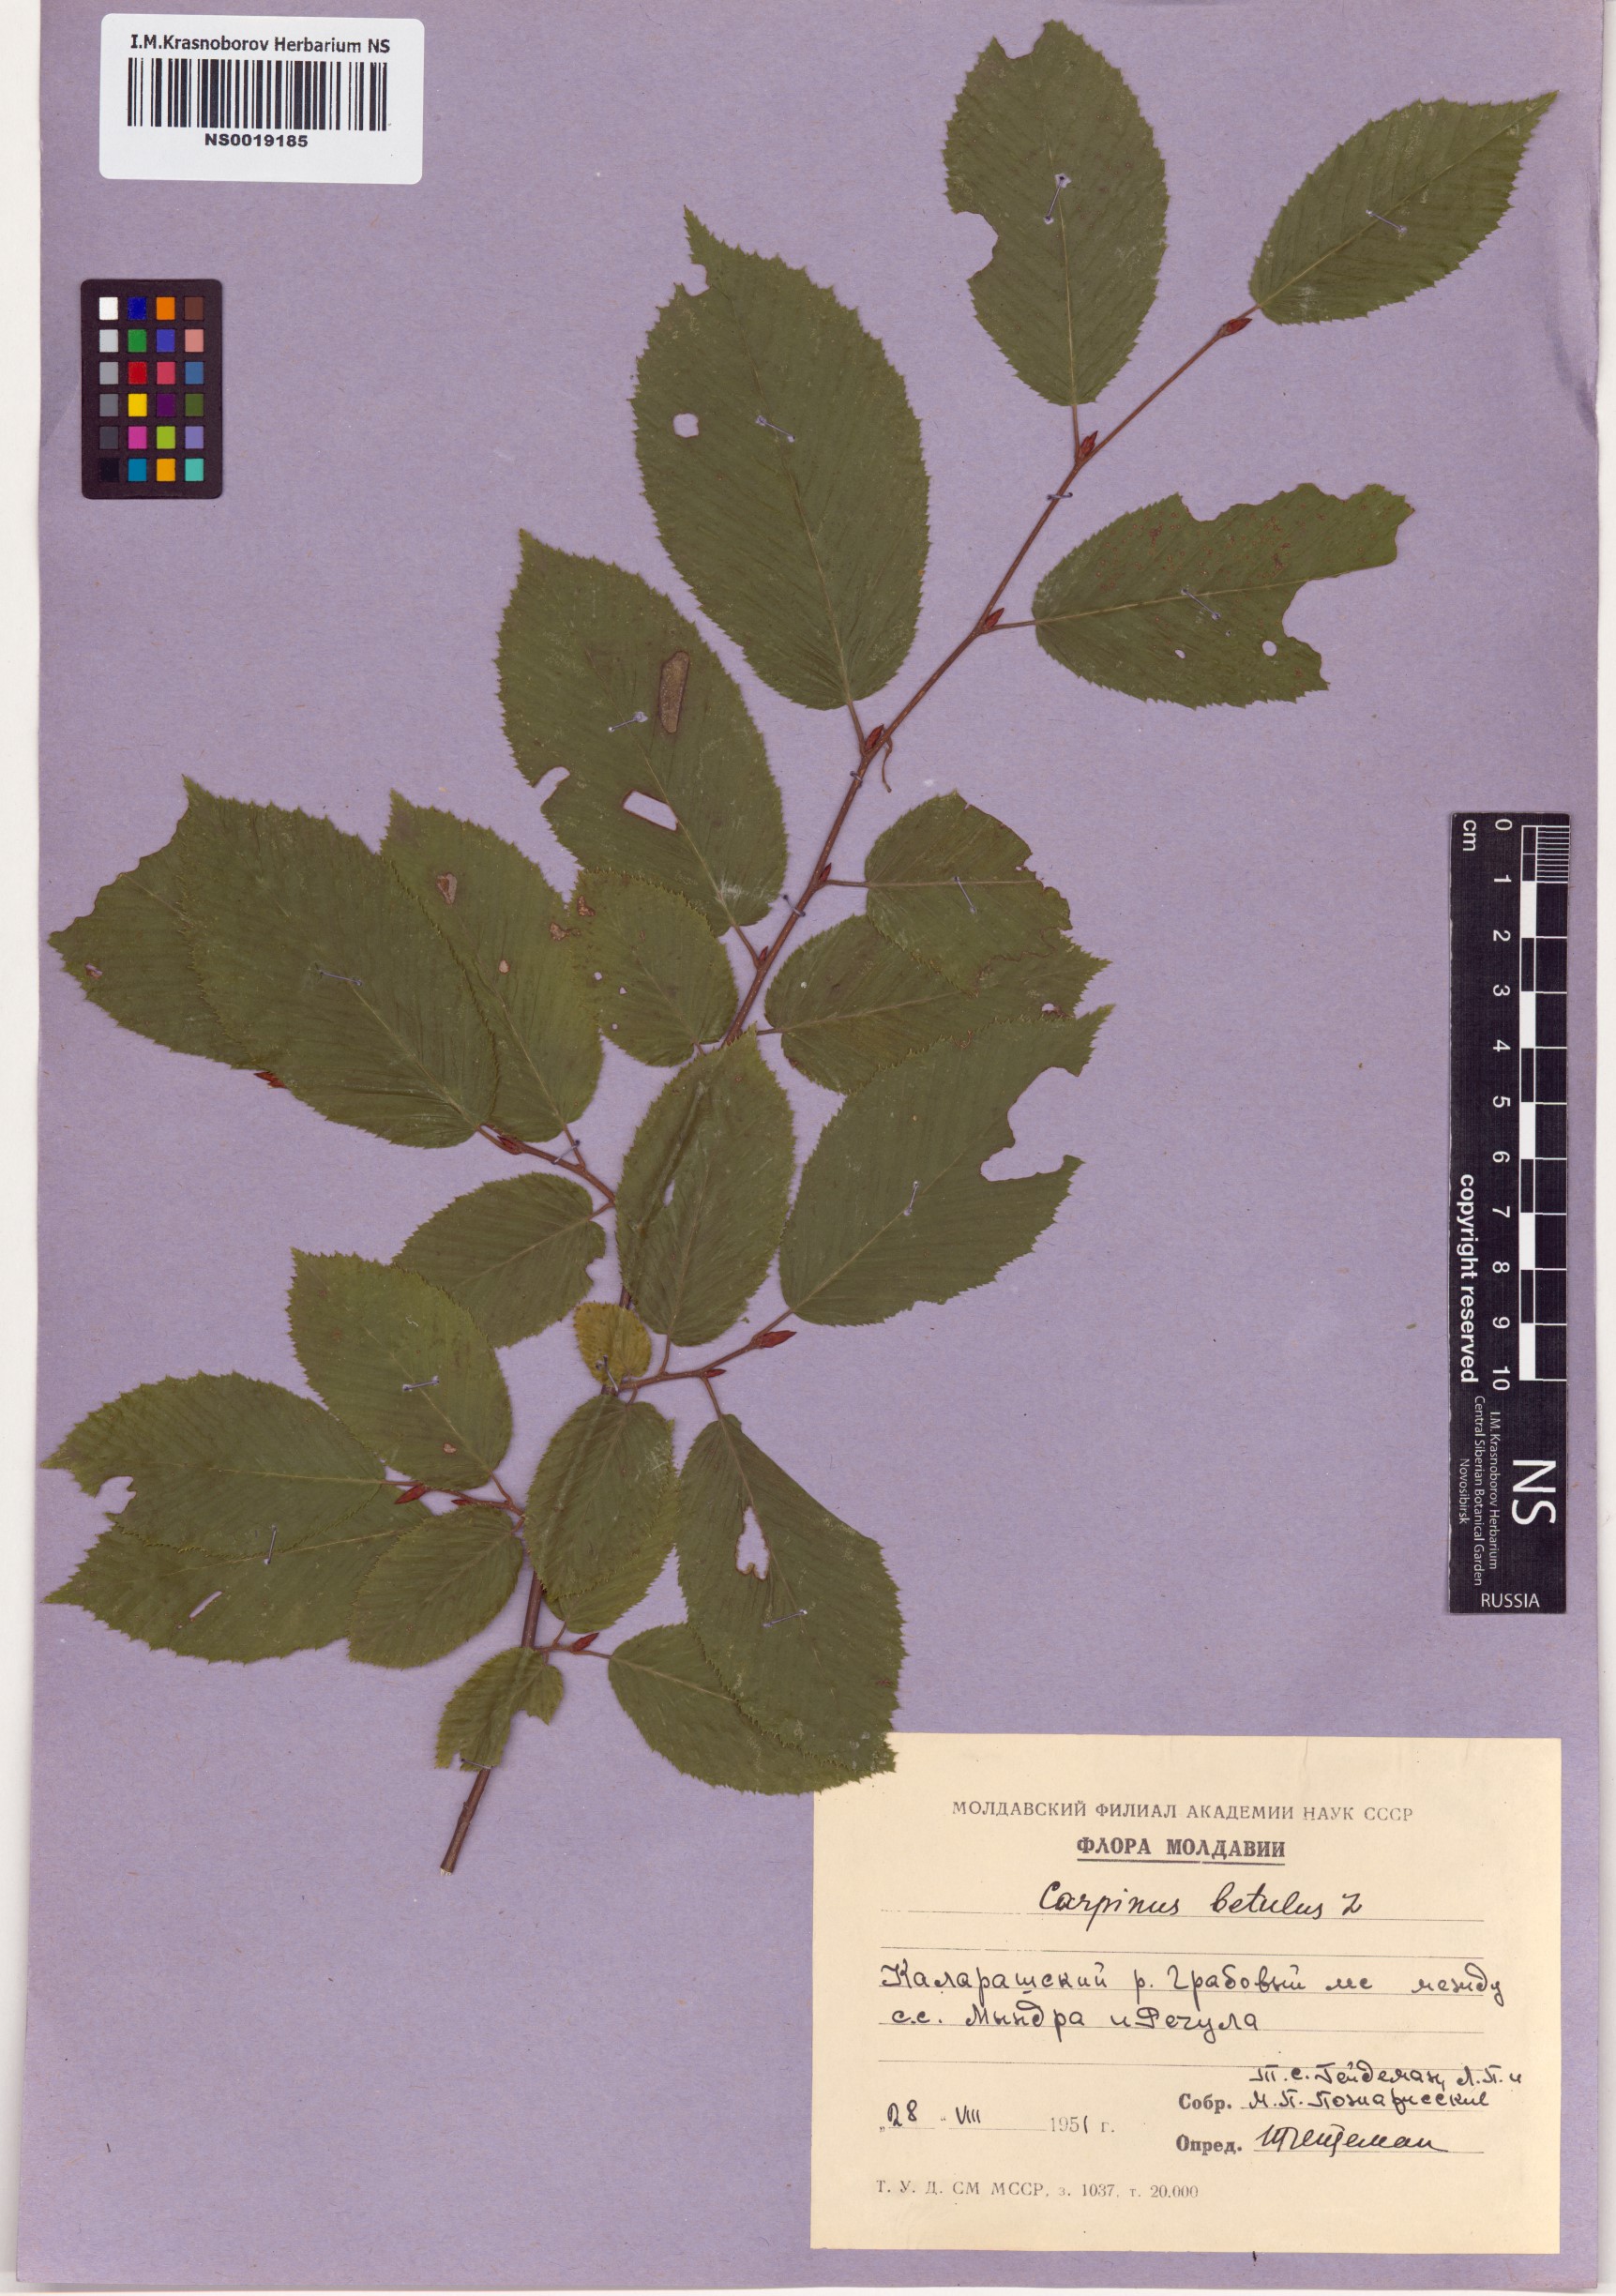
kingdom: Plantae
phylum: Tracheophyta
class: Magnoliopsida
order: Fagales
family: Betulaceae
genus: Carpinus
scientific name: Carpinus betulus
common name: Hornbeam
